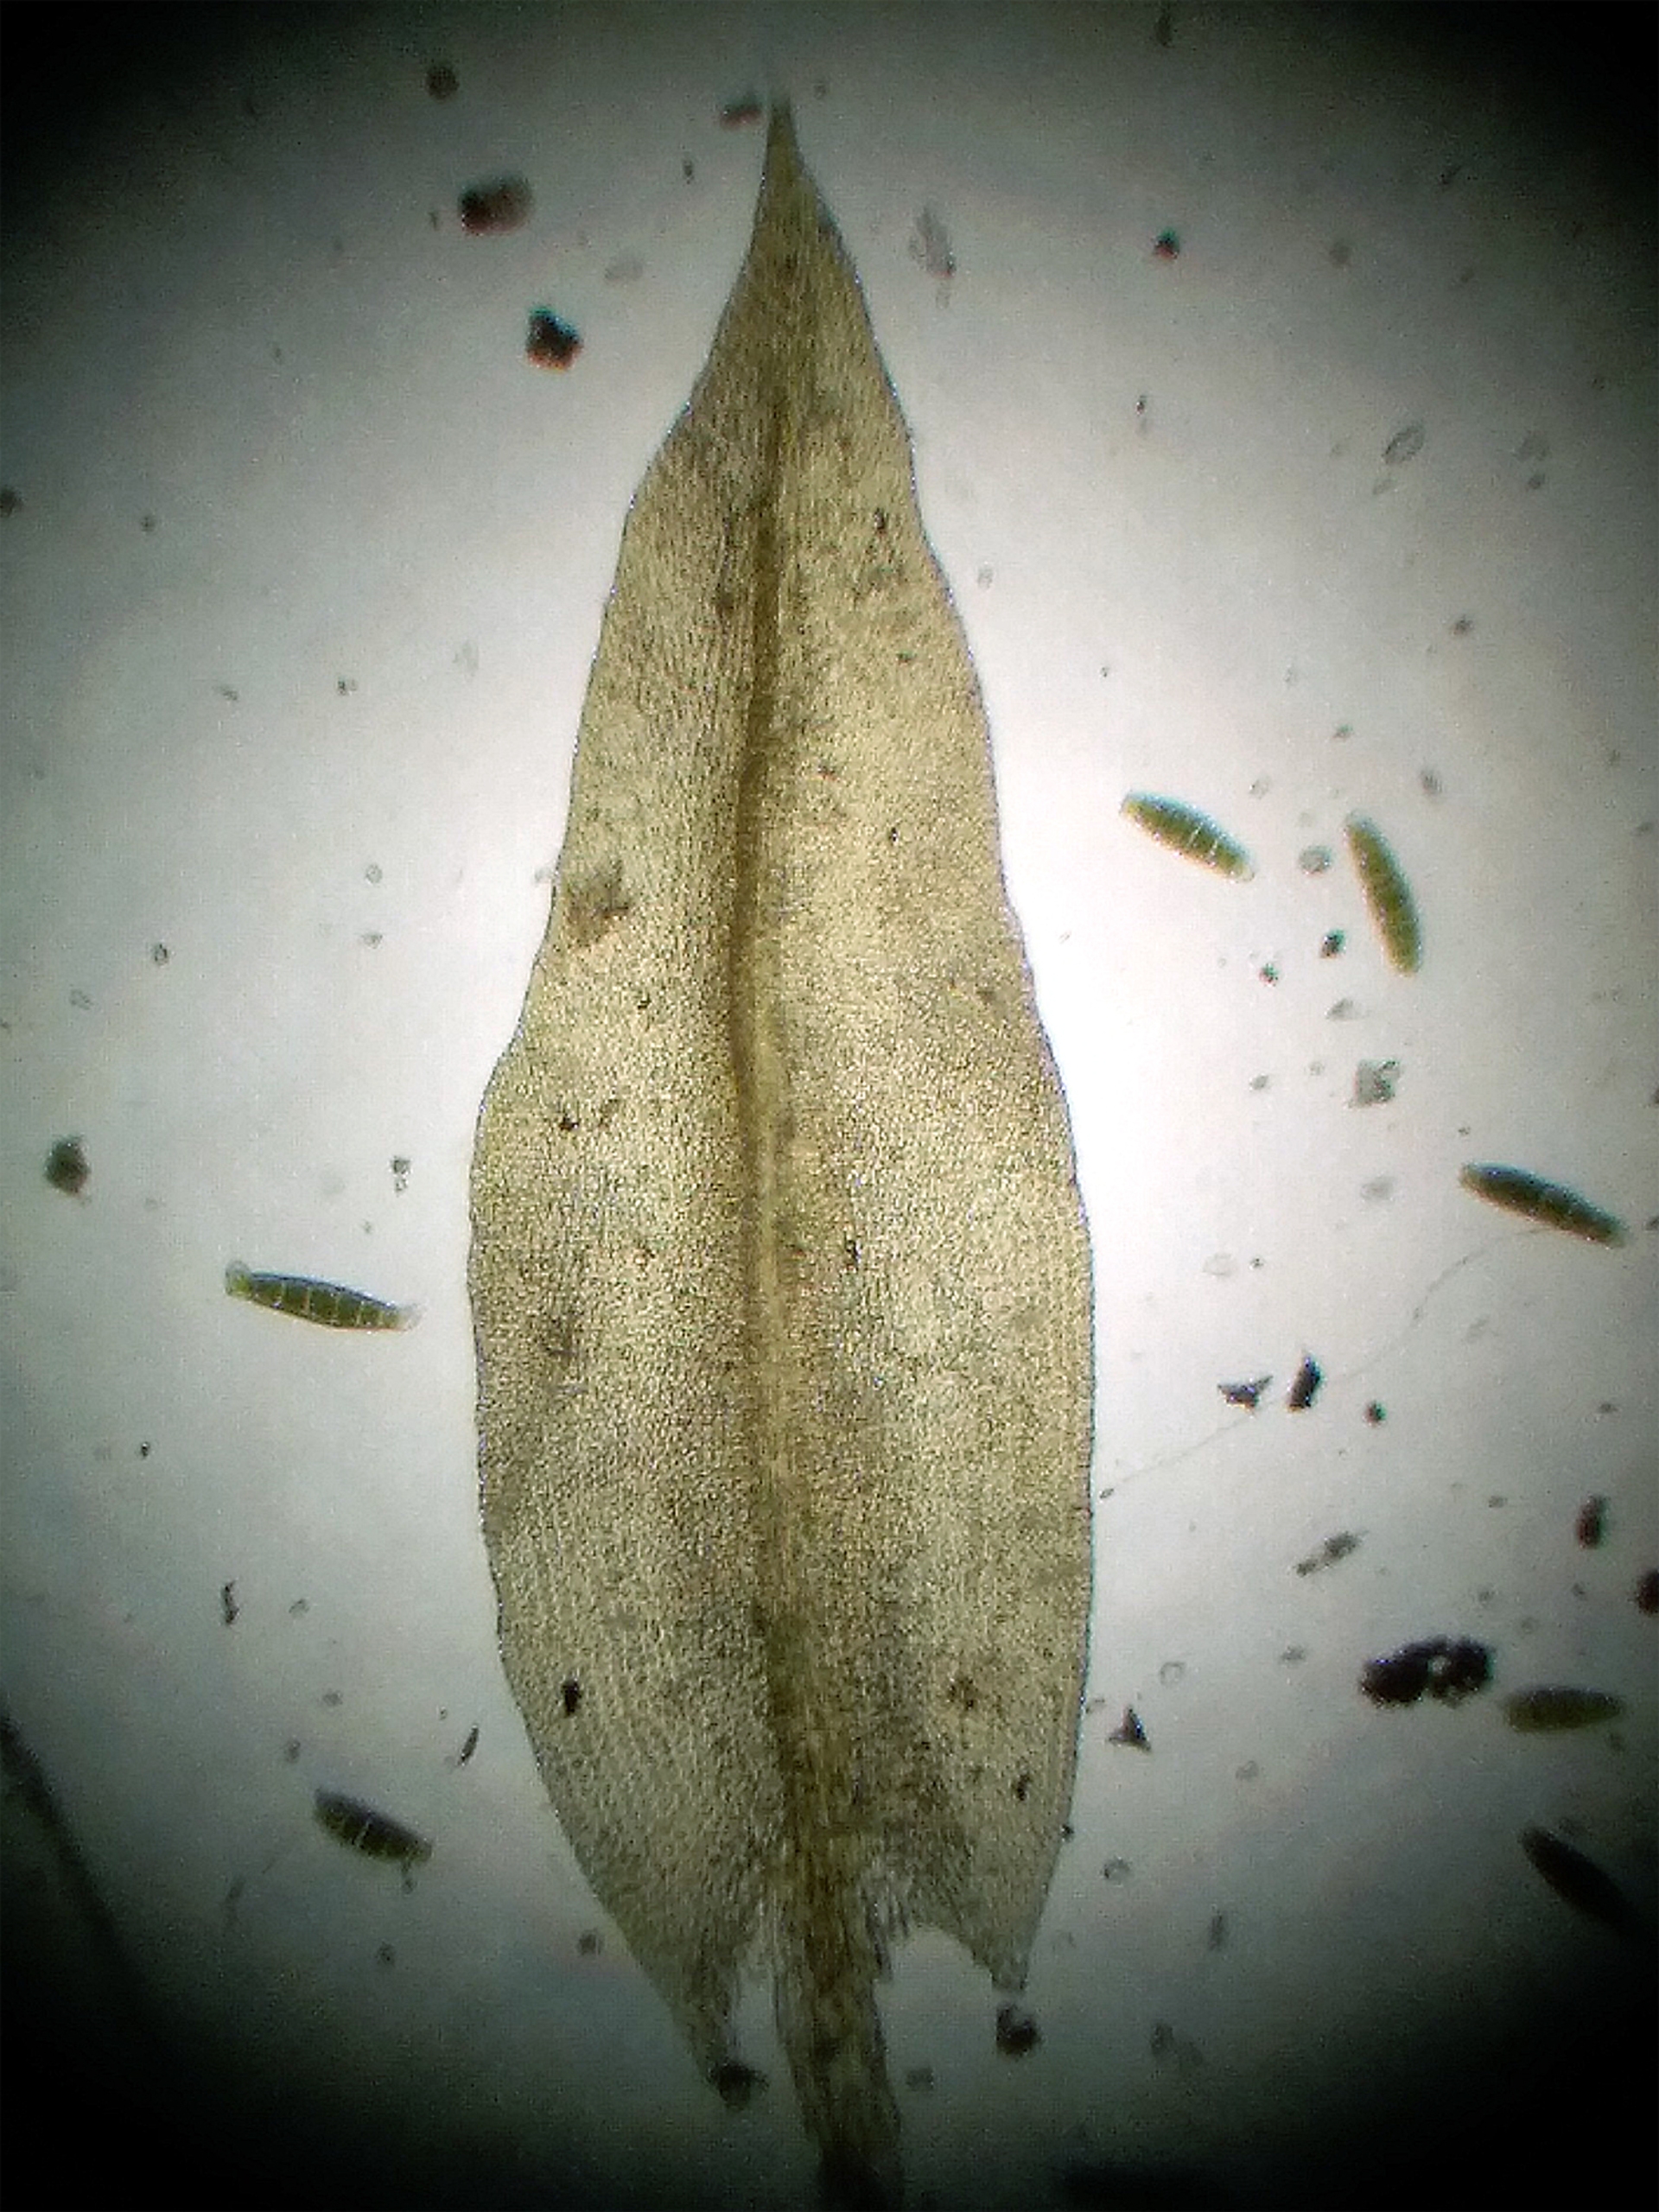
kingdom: Plantae
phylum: Bryophyta
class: Bryopsida
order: Orthotrichales
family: Orthotrichaceae
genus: Zygodon
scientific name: Zygodon conoideus
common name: Tand-køllemos
